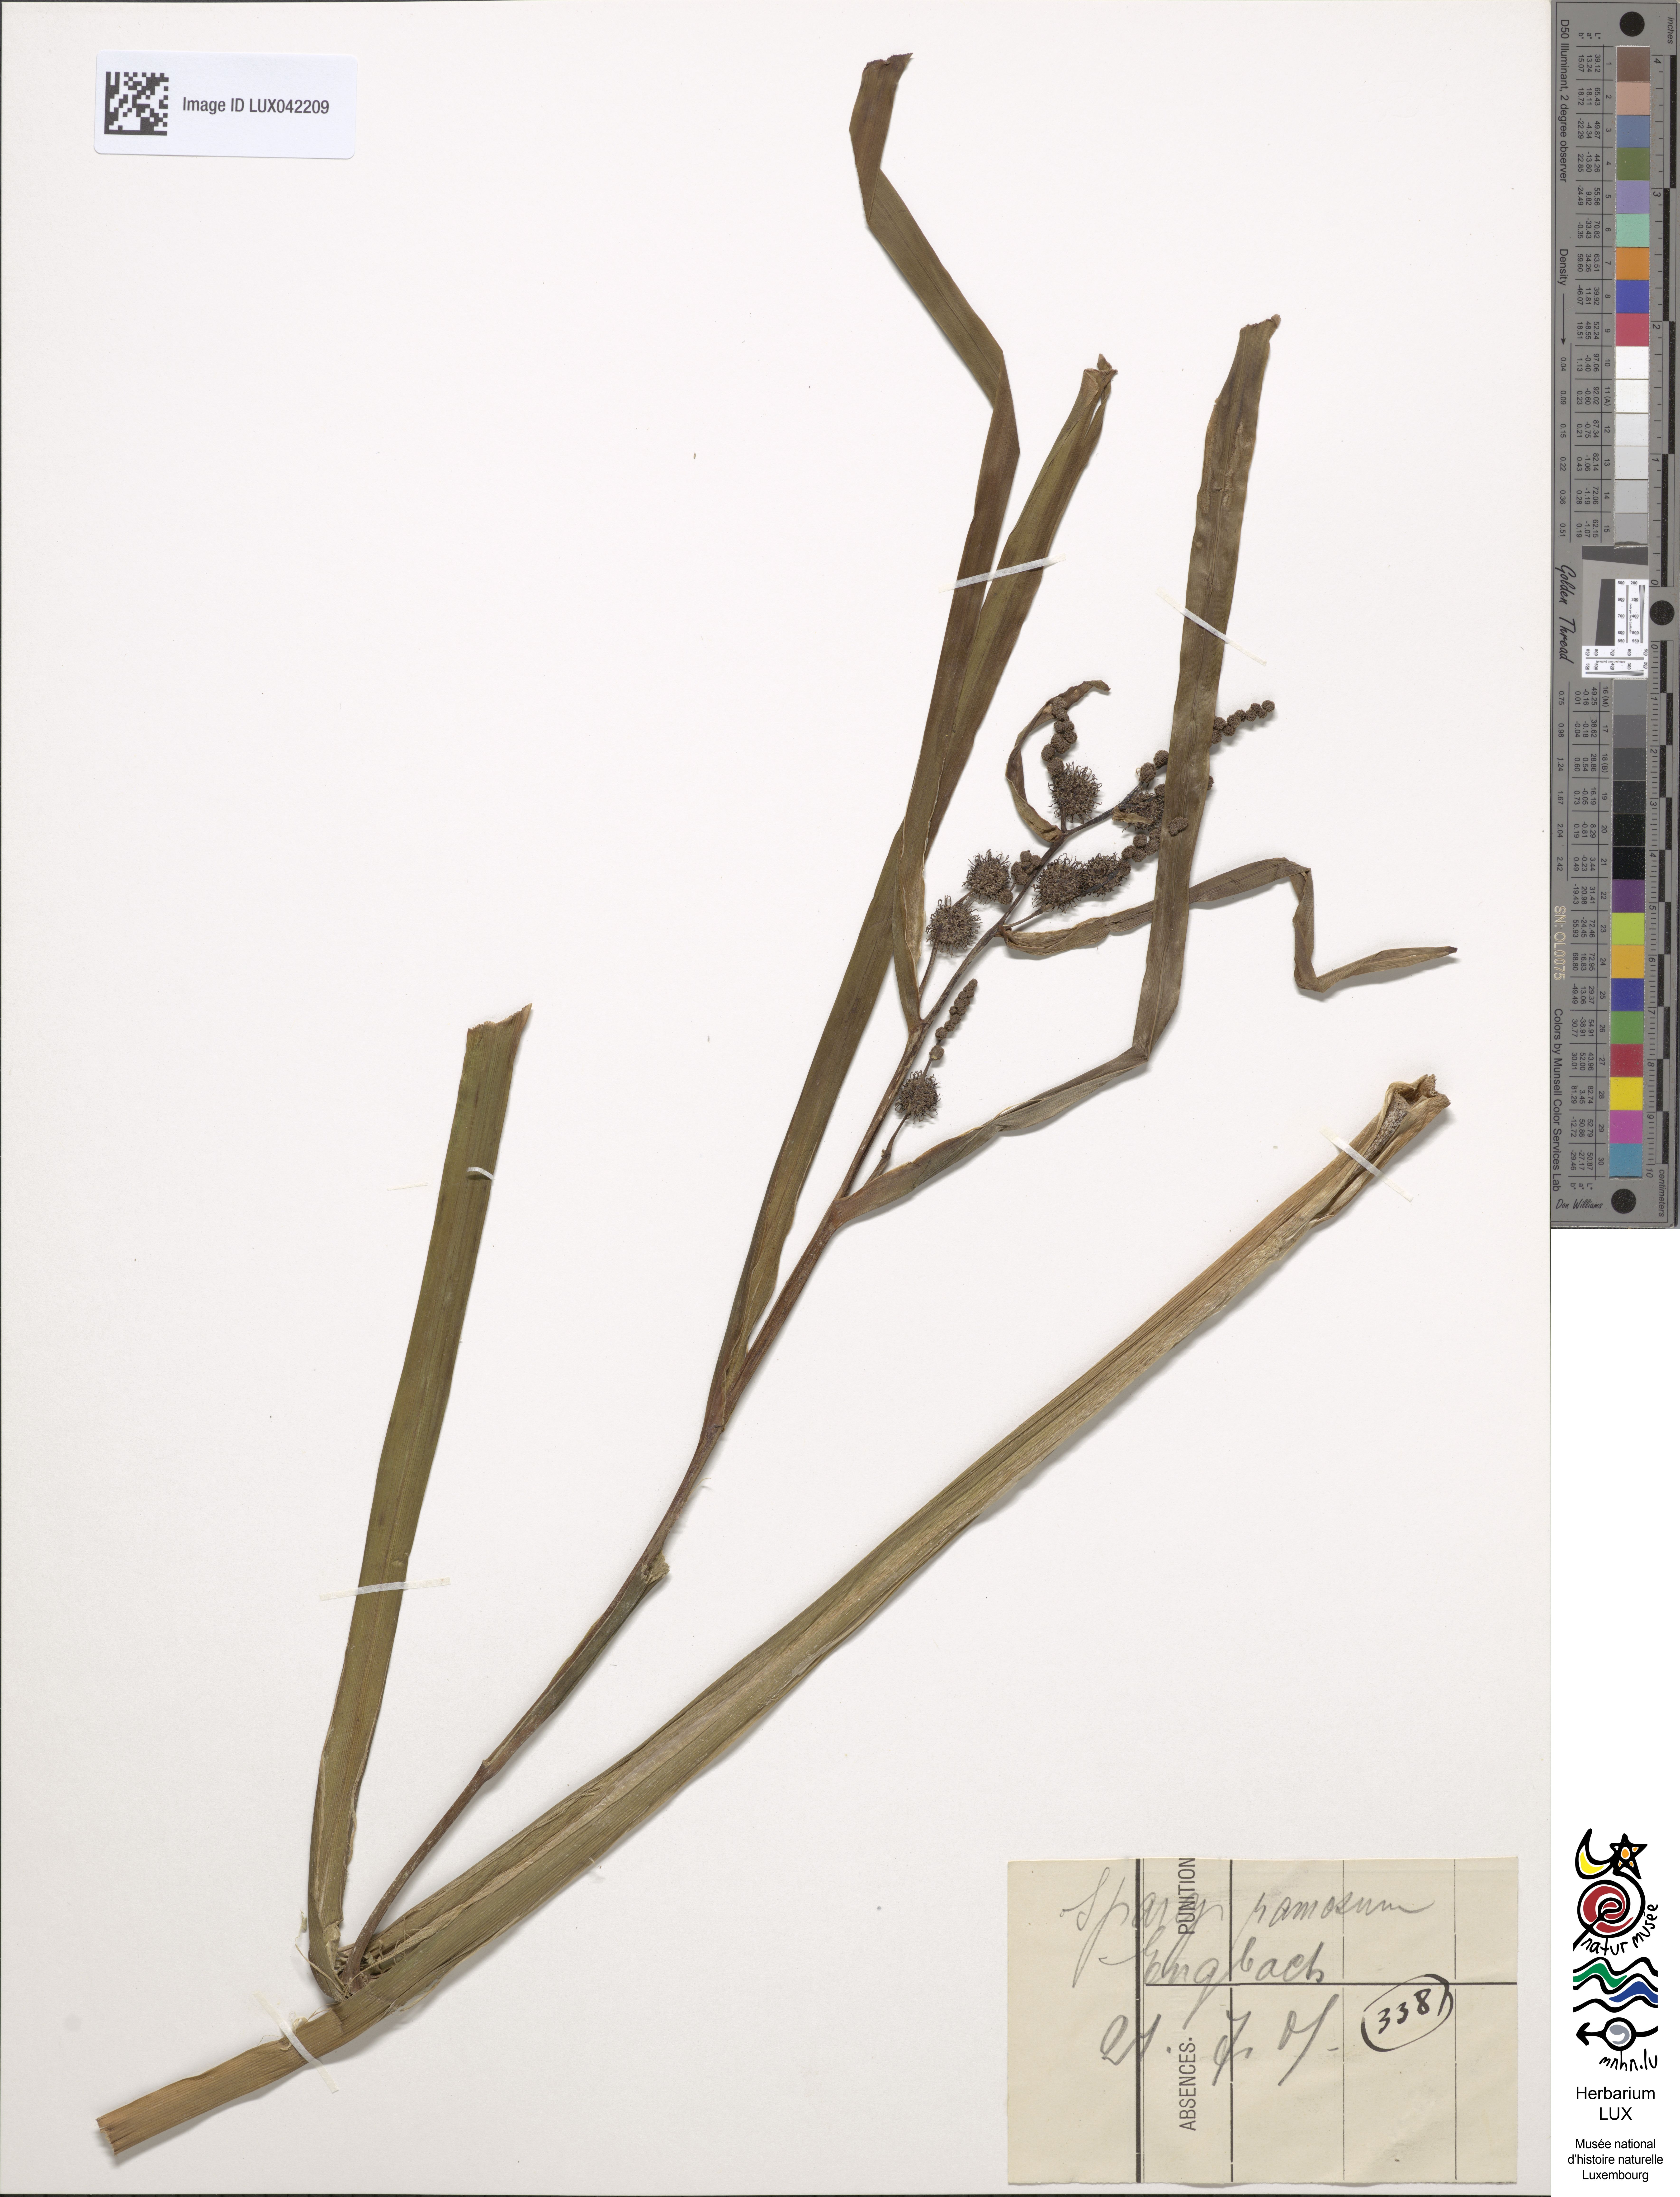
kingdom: Plantae
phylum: Tracheophyta
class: Liliopsida
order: Poales
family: Typhaceae
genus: Sparganium
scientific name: Sparganium erectum
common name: Branched bur-reed
